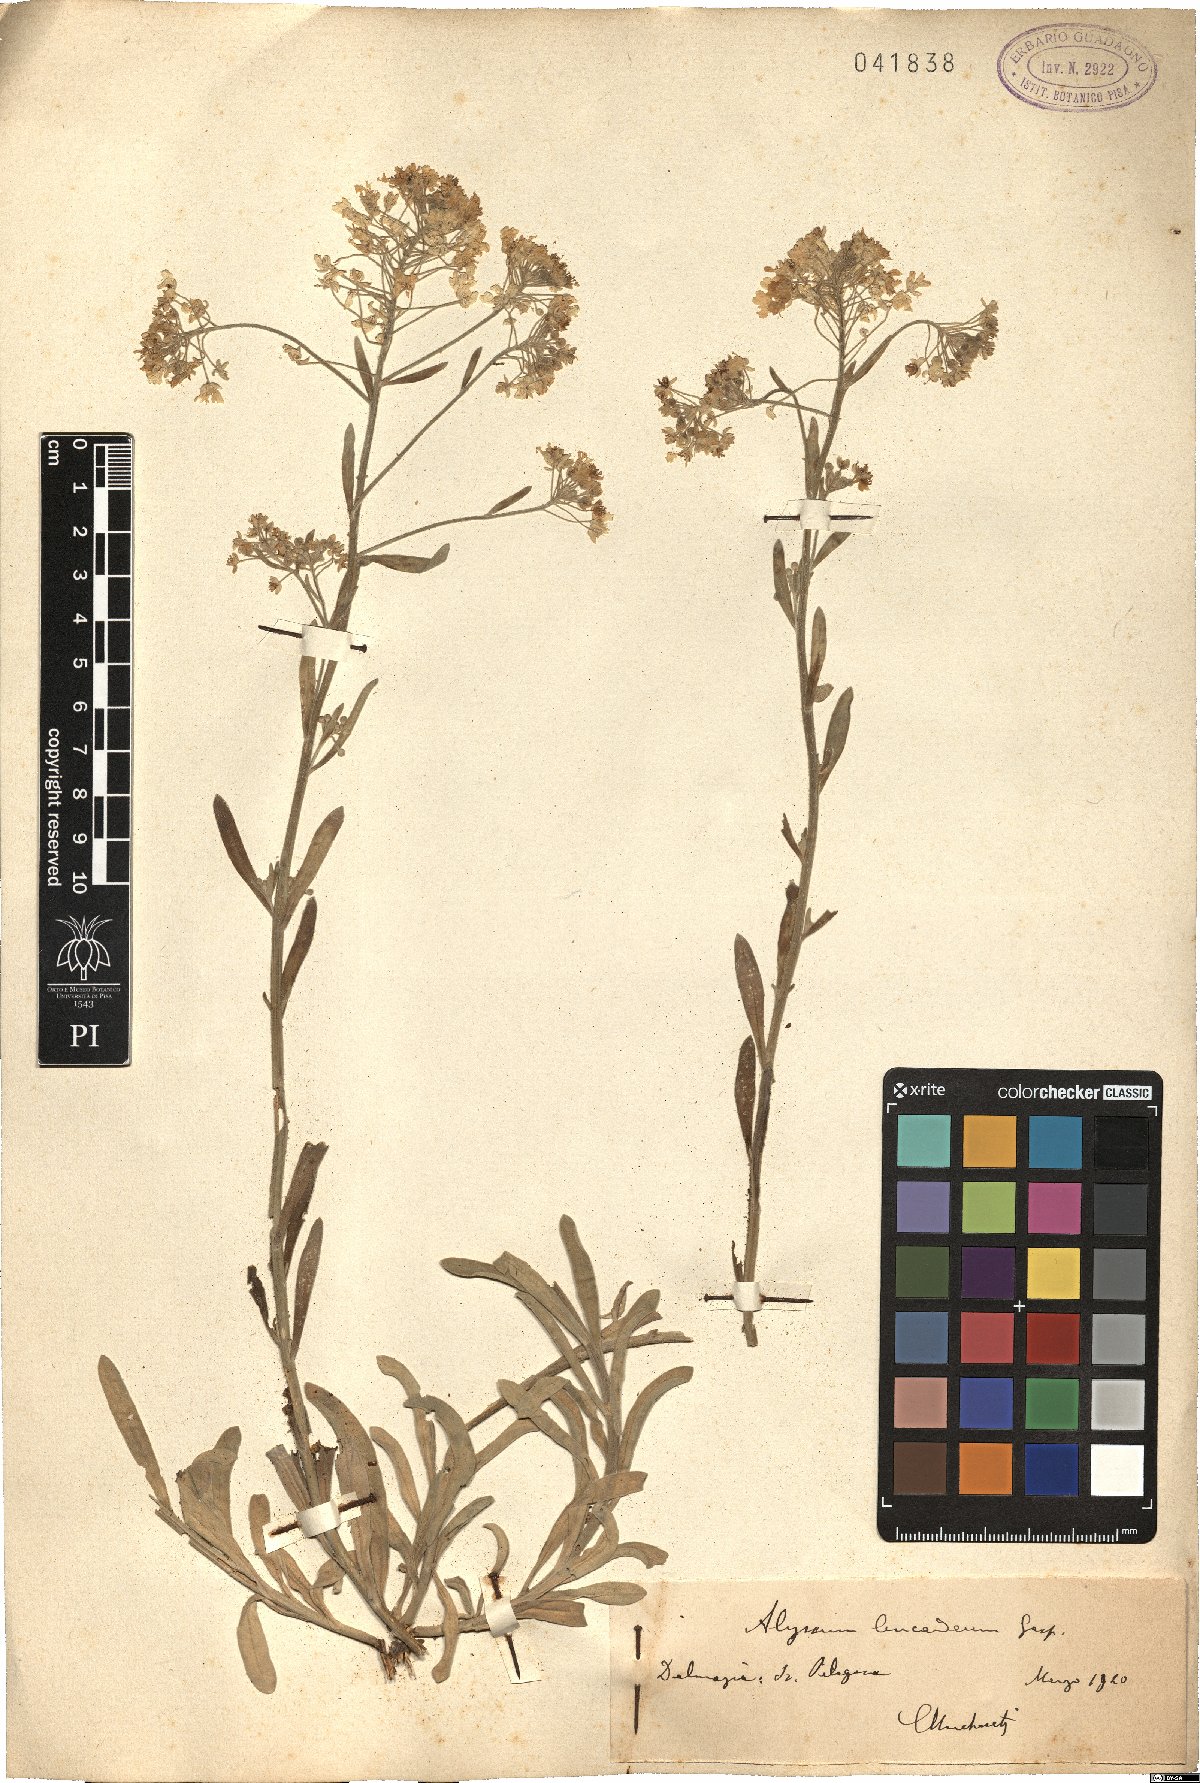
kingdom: Plantae
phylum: Tracheophyta
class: Magnoliopsida
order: Brassicales
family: Brassicaceae
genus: Alyssum
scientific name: Alyssum lanceolatum
